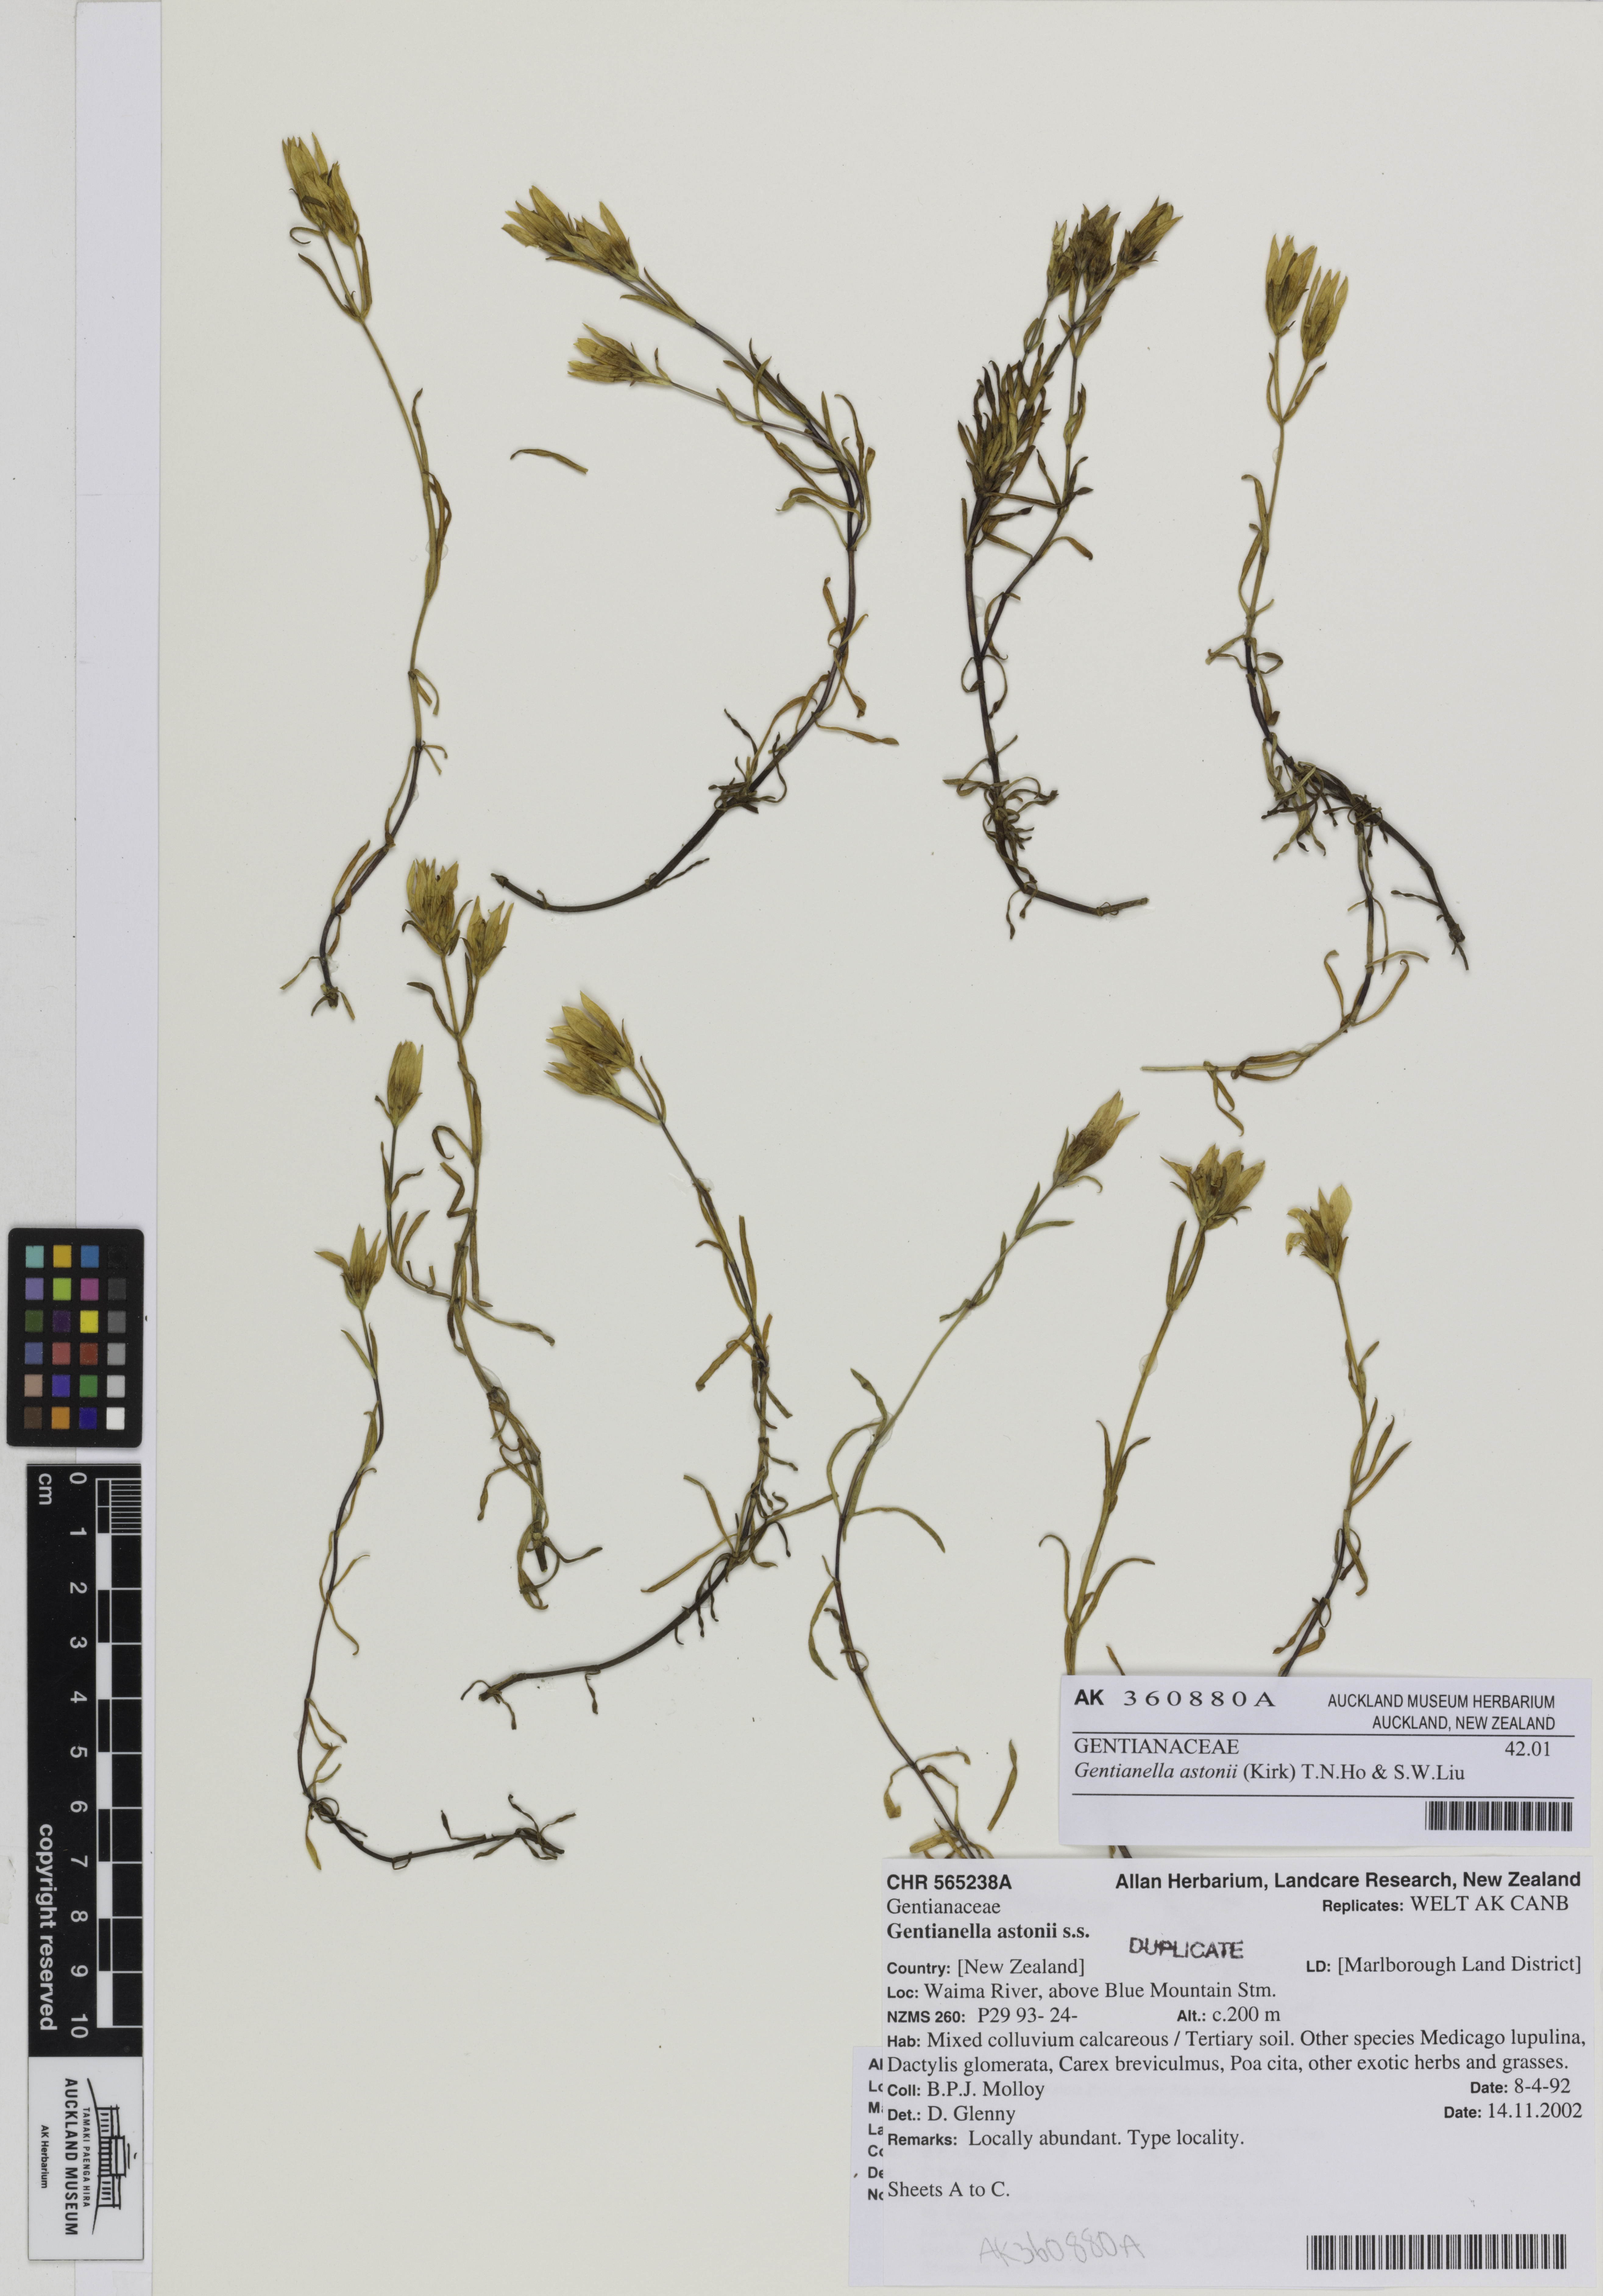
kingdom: Plantae
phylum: Tracheophyta
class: Magnoliopsida
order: Gentianales
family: Gentianaceae
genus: Gentianella
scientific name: Gentianella astonii
